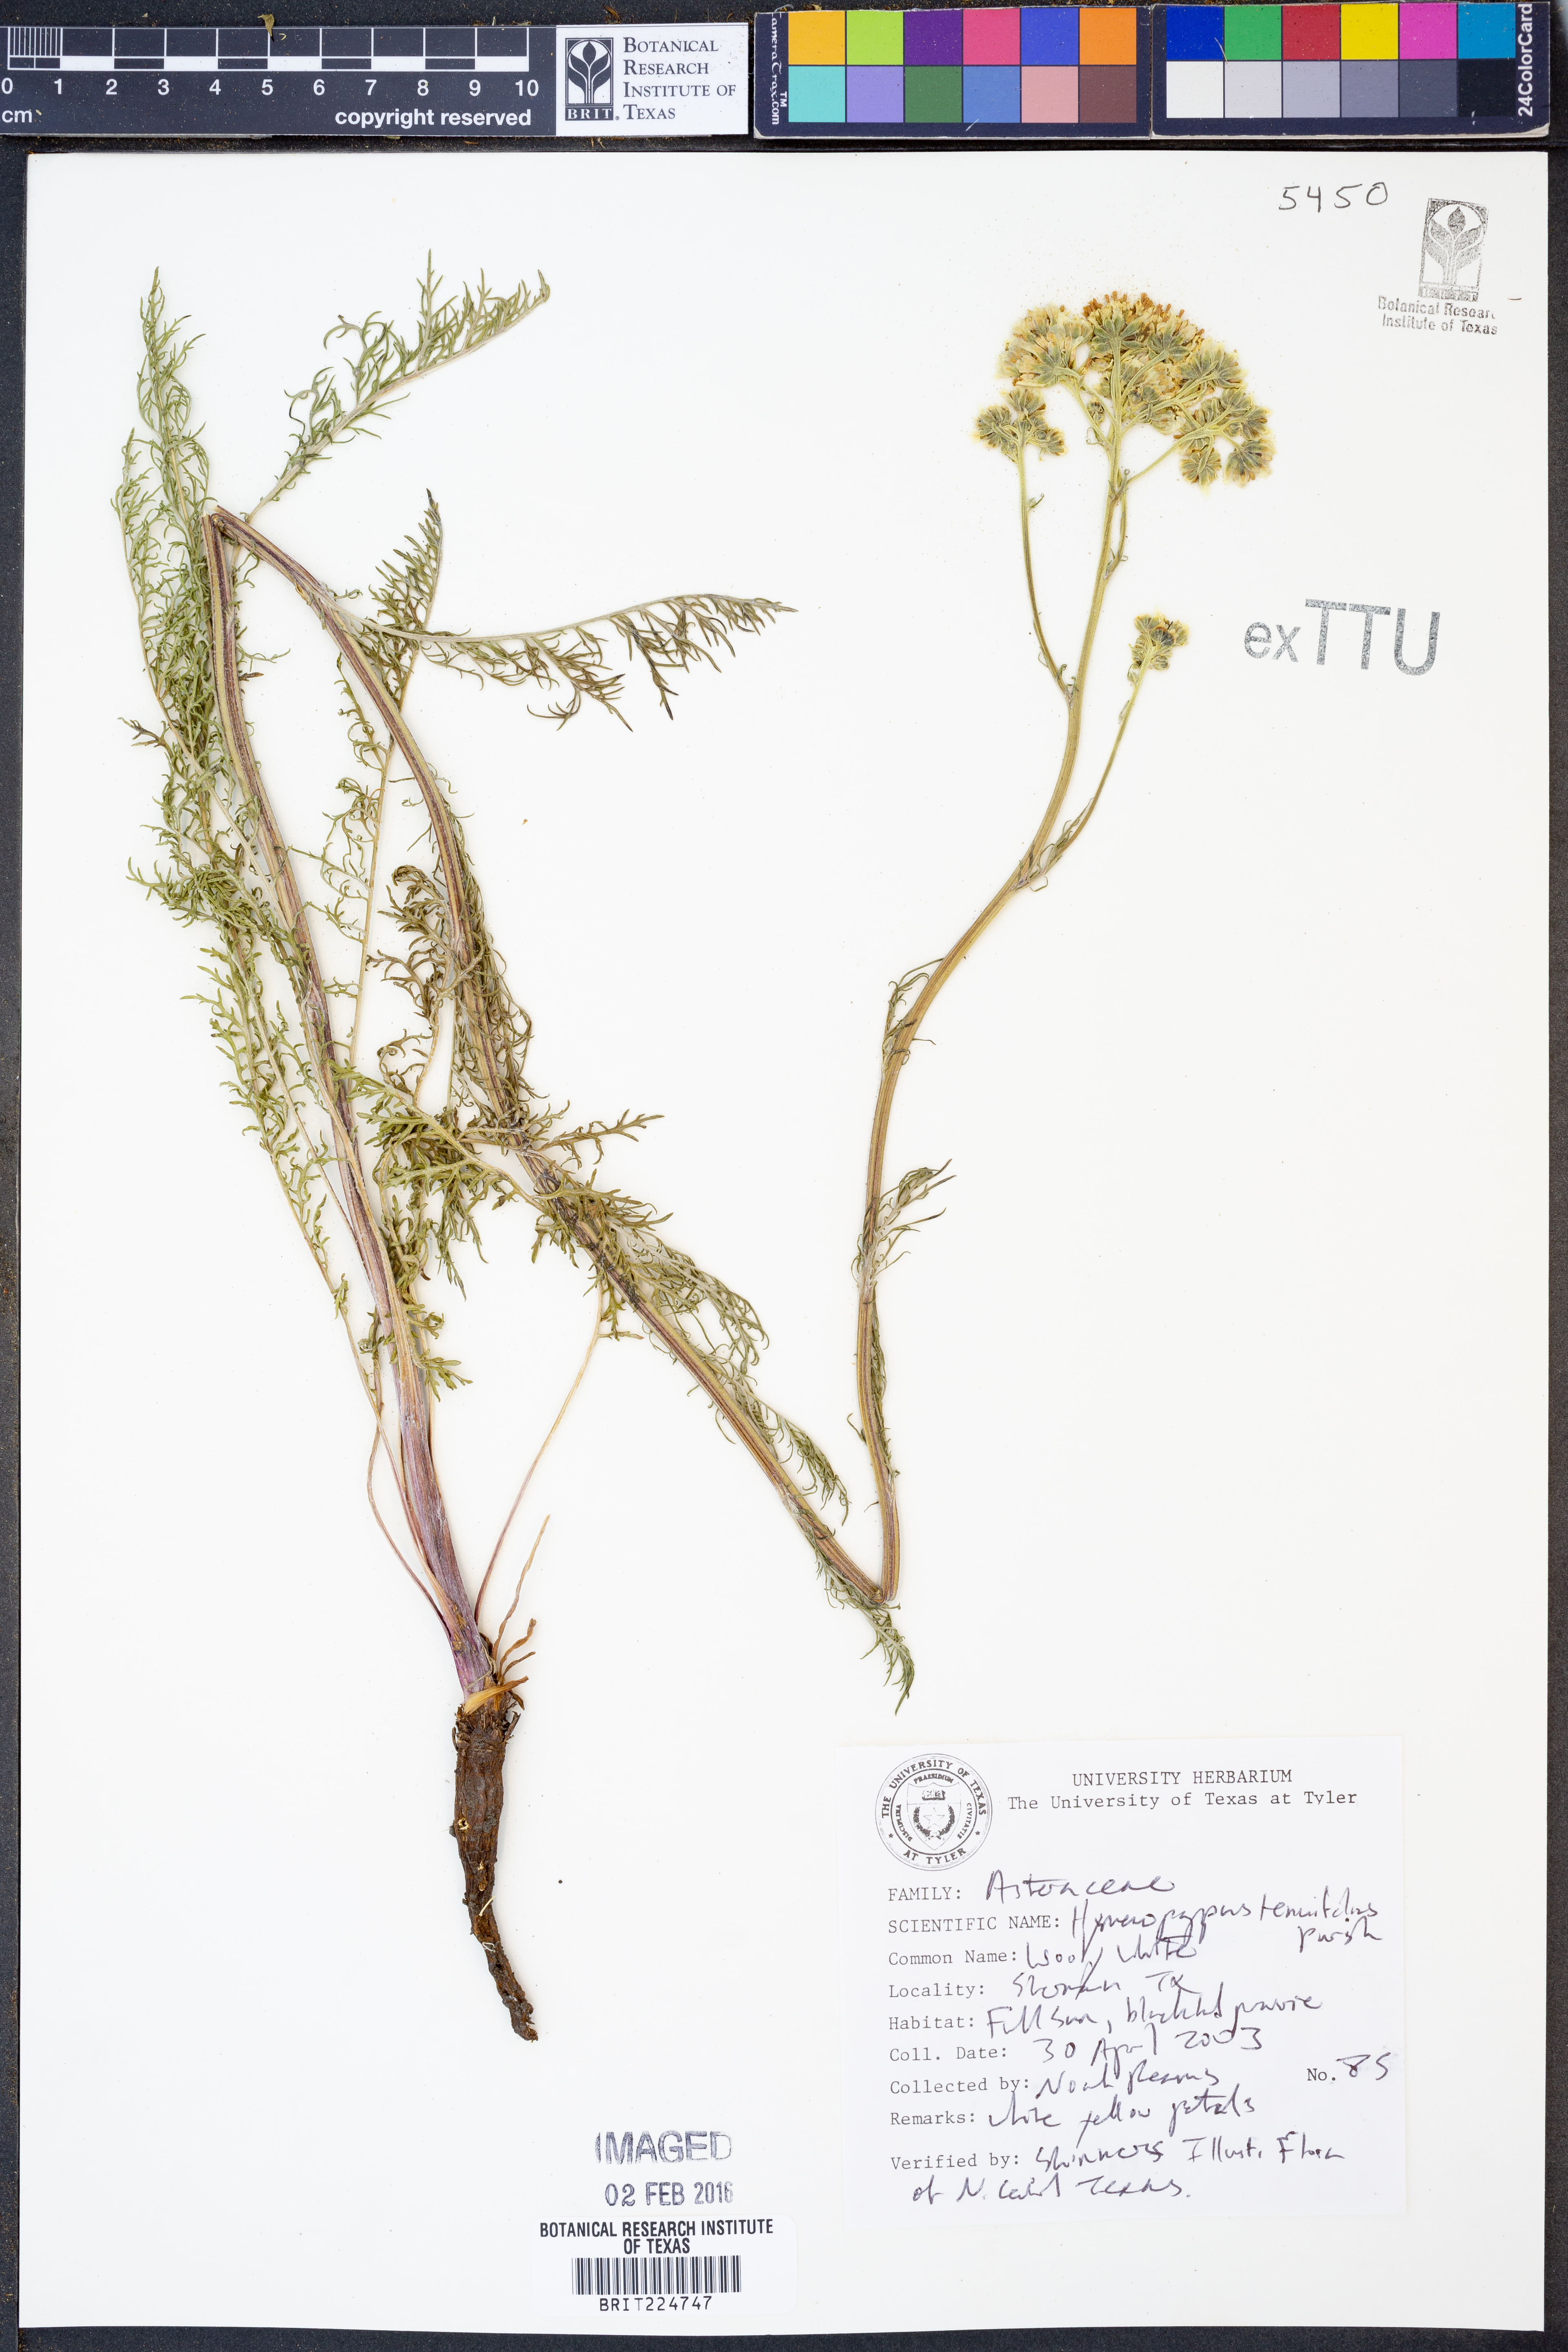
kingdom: Plantae
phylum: Tracheophyta
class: Magnoliopsida
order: Asterales
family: Asteraceae
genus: Hymenopappus
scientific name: Hymenopappus tenuifolius
